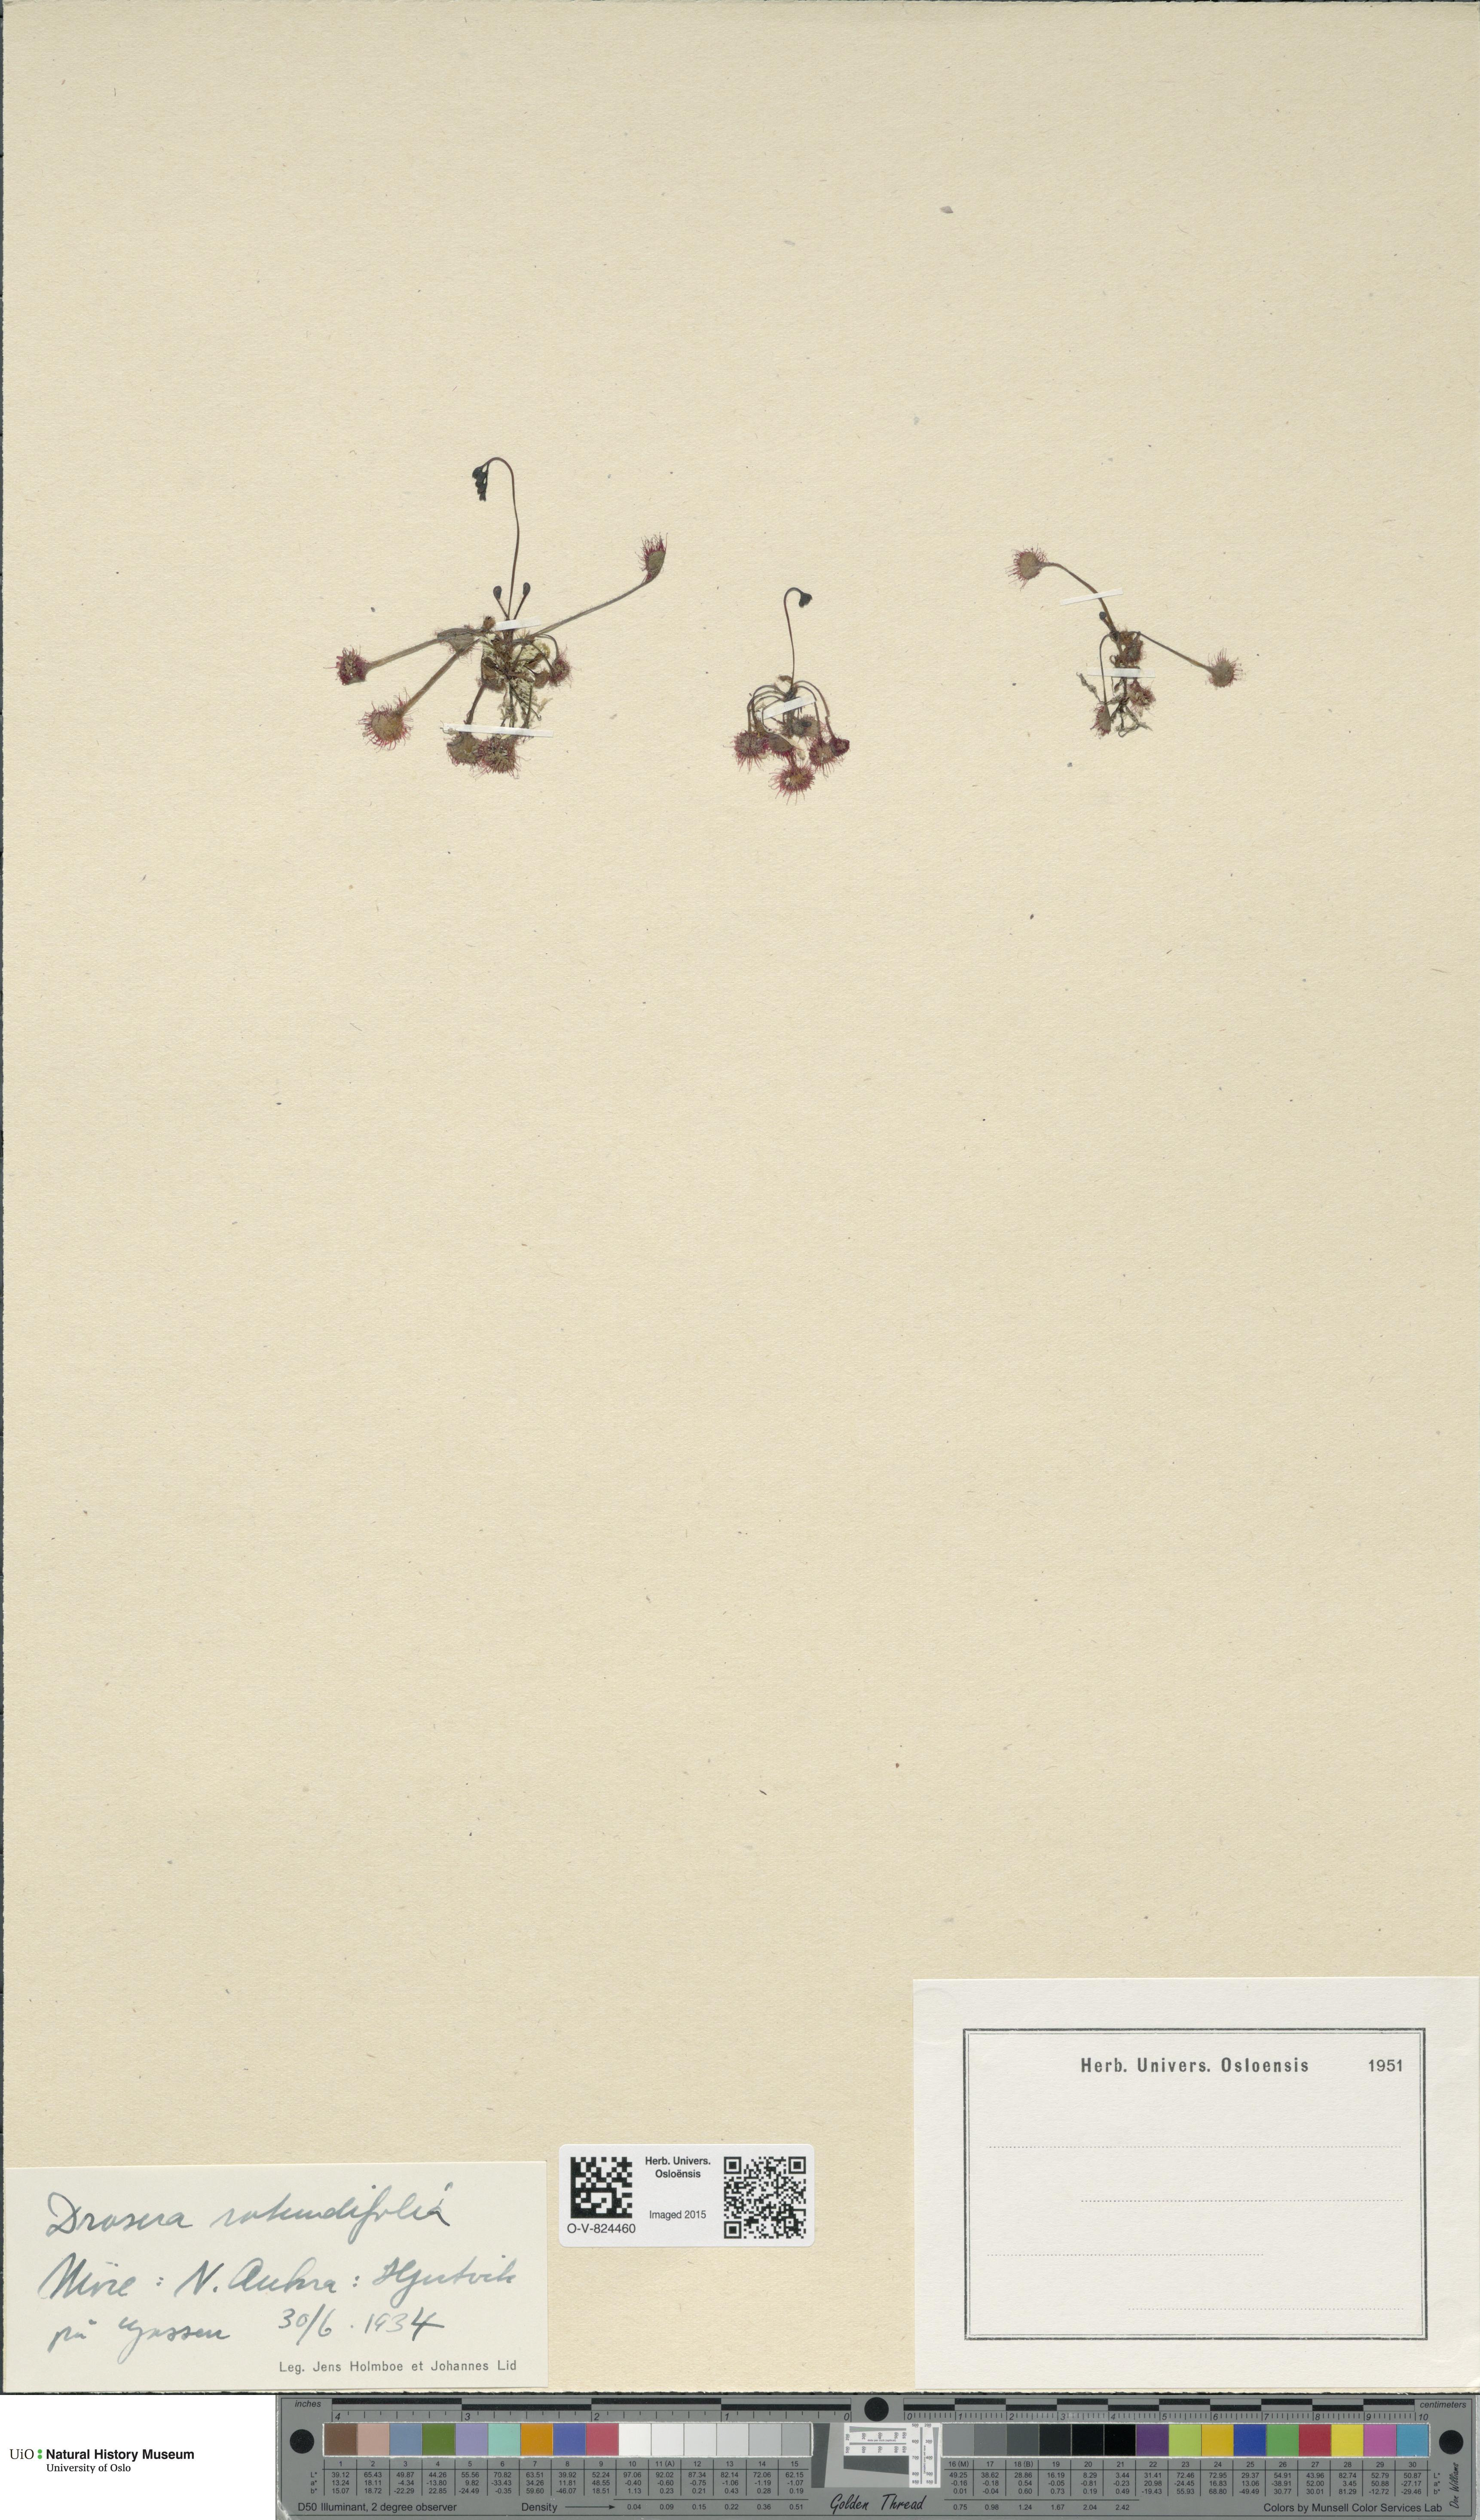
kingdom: Plantae
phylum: Tracheophyta
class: Magnoliopsida
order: Caryophyllales
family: Droseraceae
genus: Drosera
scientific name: Drosera rotundifolia
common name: Round-leaved sundew
